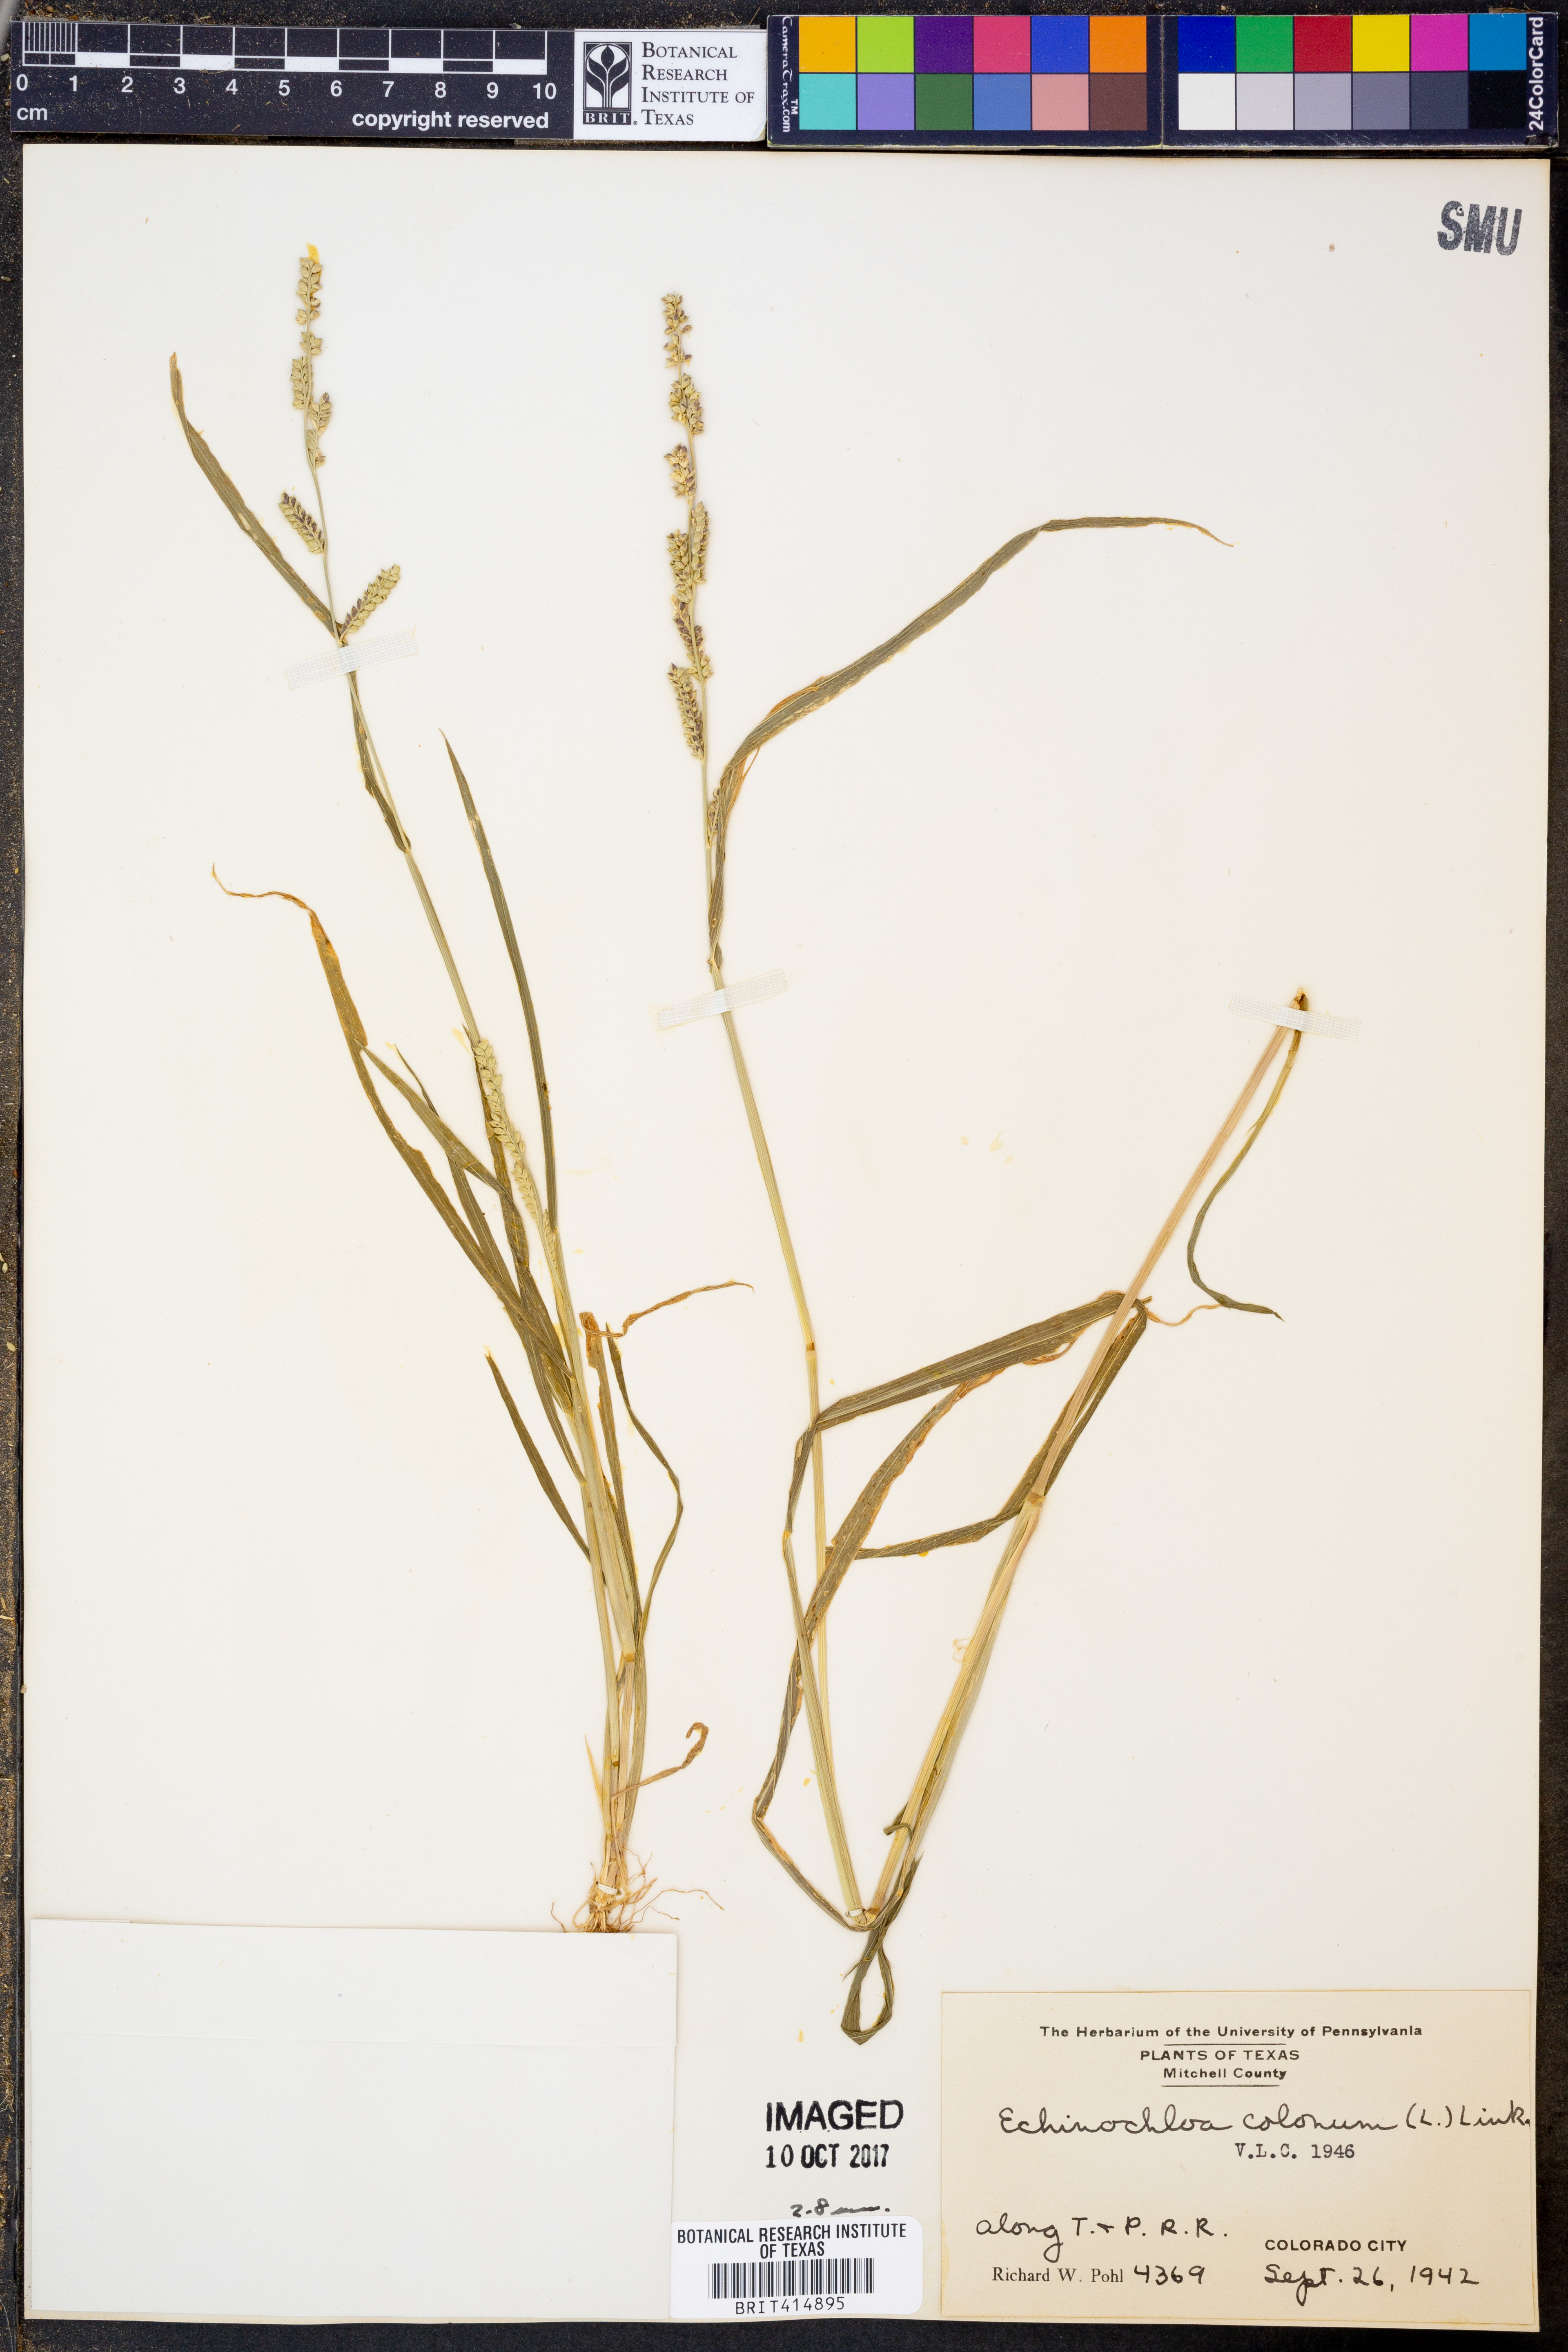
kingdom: Plantae
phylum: Tracheophyta
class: Liliopsida
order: Poales
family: Poaceae
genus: Echinochloa
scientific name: Echinochloa colonum
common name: Jungle rice
